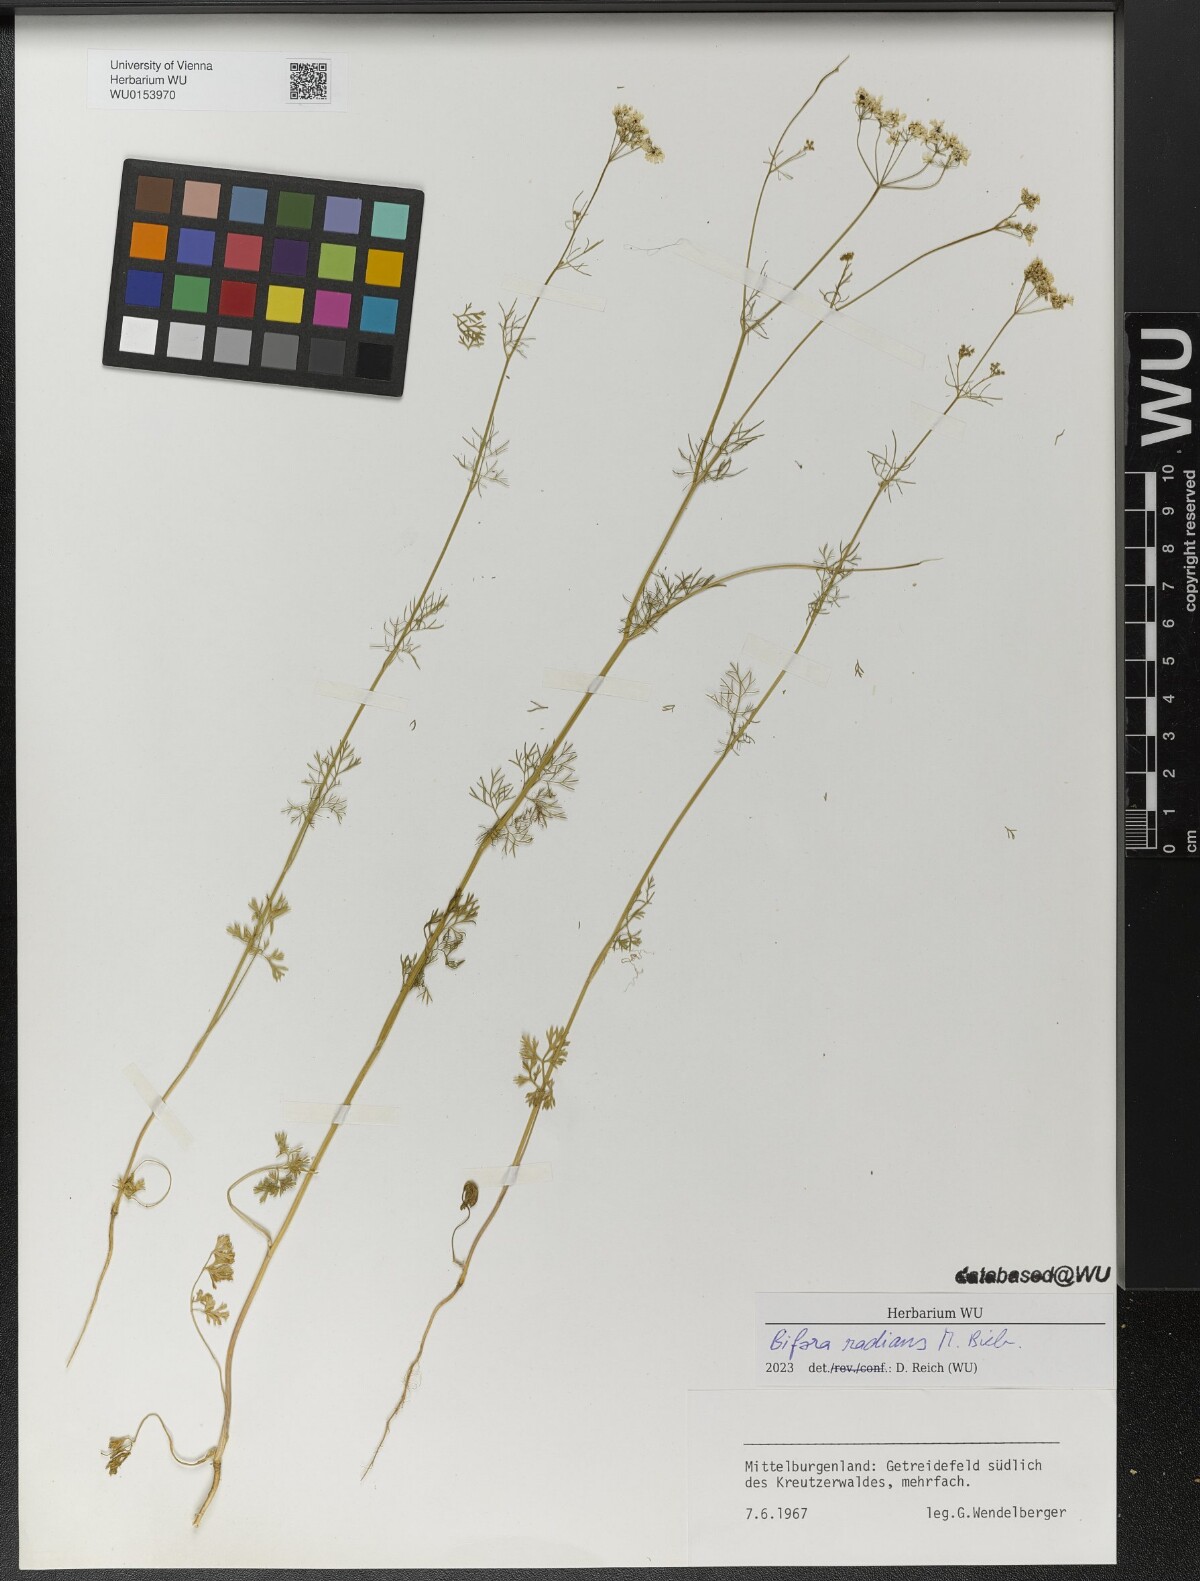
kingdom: Plantae
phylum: Tracheophyta
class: Magnoliopsida
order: Apiales
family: Apiaceae
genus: Bifora
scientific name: Bifora radians
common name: Wild bishop
